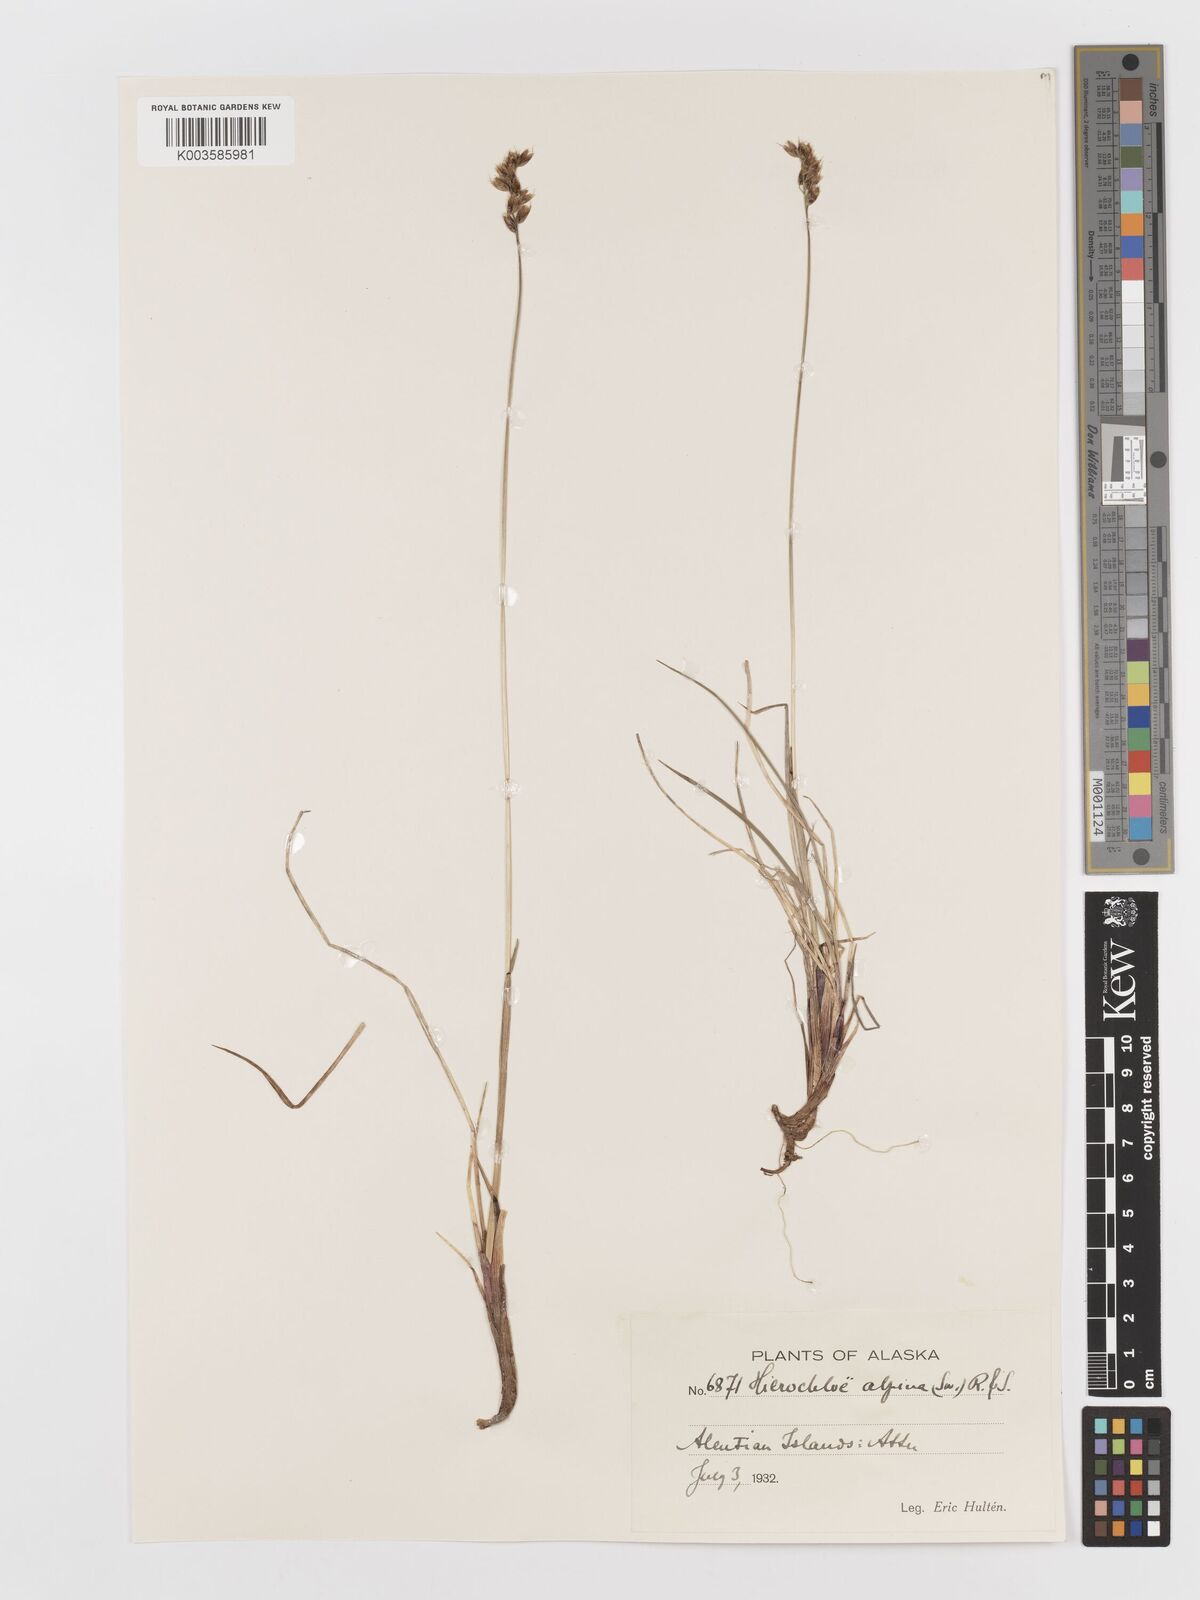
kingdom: Plantae
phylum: Tracheophyta
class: Liliopsida
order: Poales
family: Poaceae
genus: Anthoxanthum
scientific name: Anthoxanthum monticola
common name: Alpine sweetgrass
